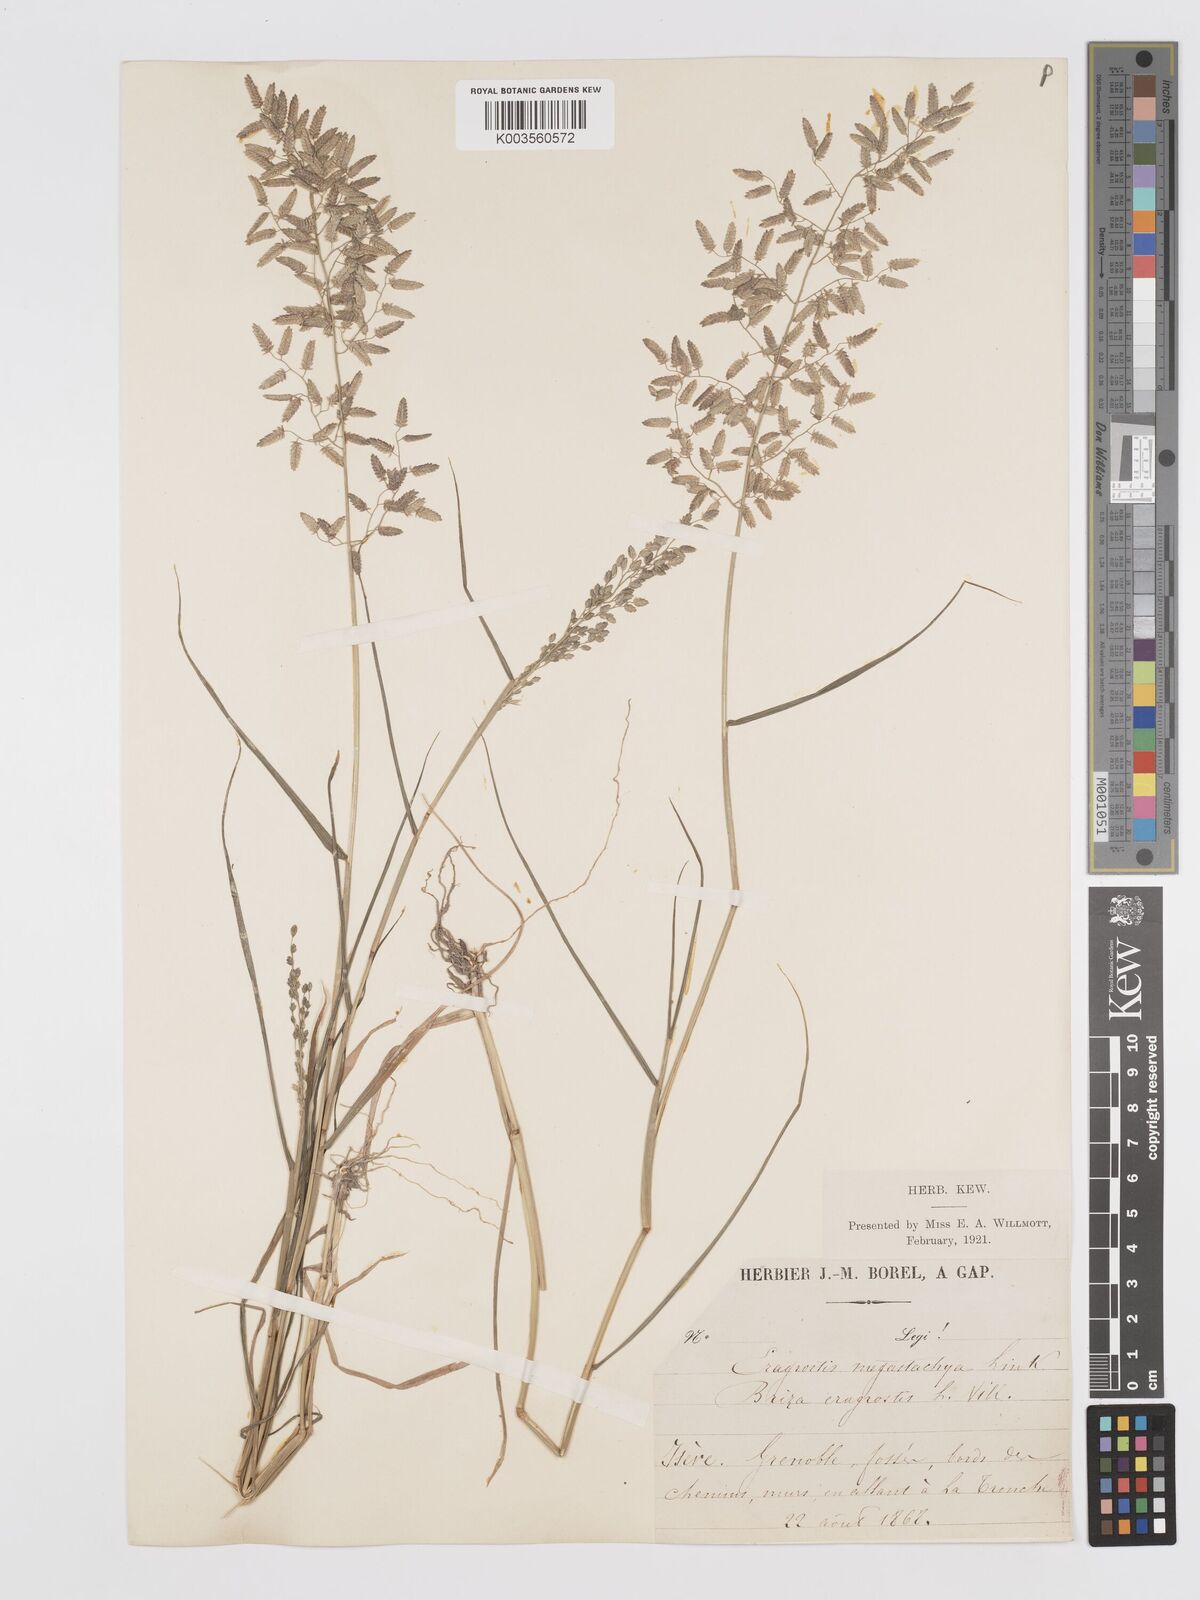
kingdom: Plantae
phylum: Tracheophyta
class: Liliopsida
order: Poales
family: Poaceae
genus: Eragrostis
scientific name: Eragrostis cilianensis
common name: Stinkgrass
